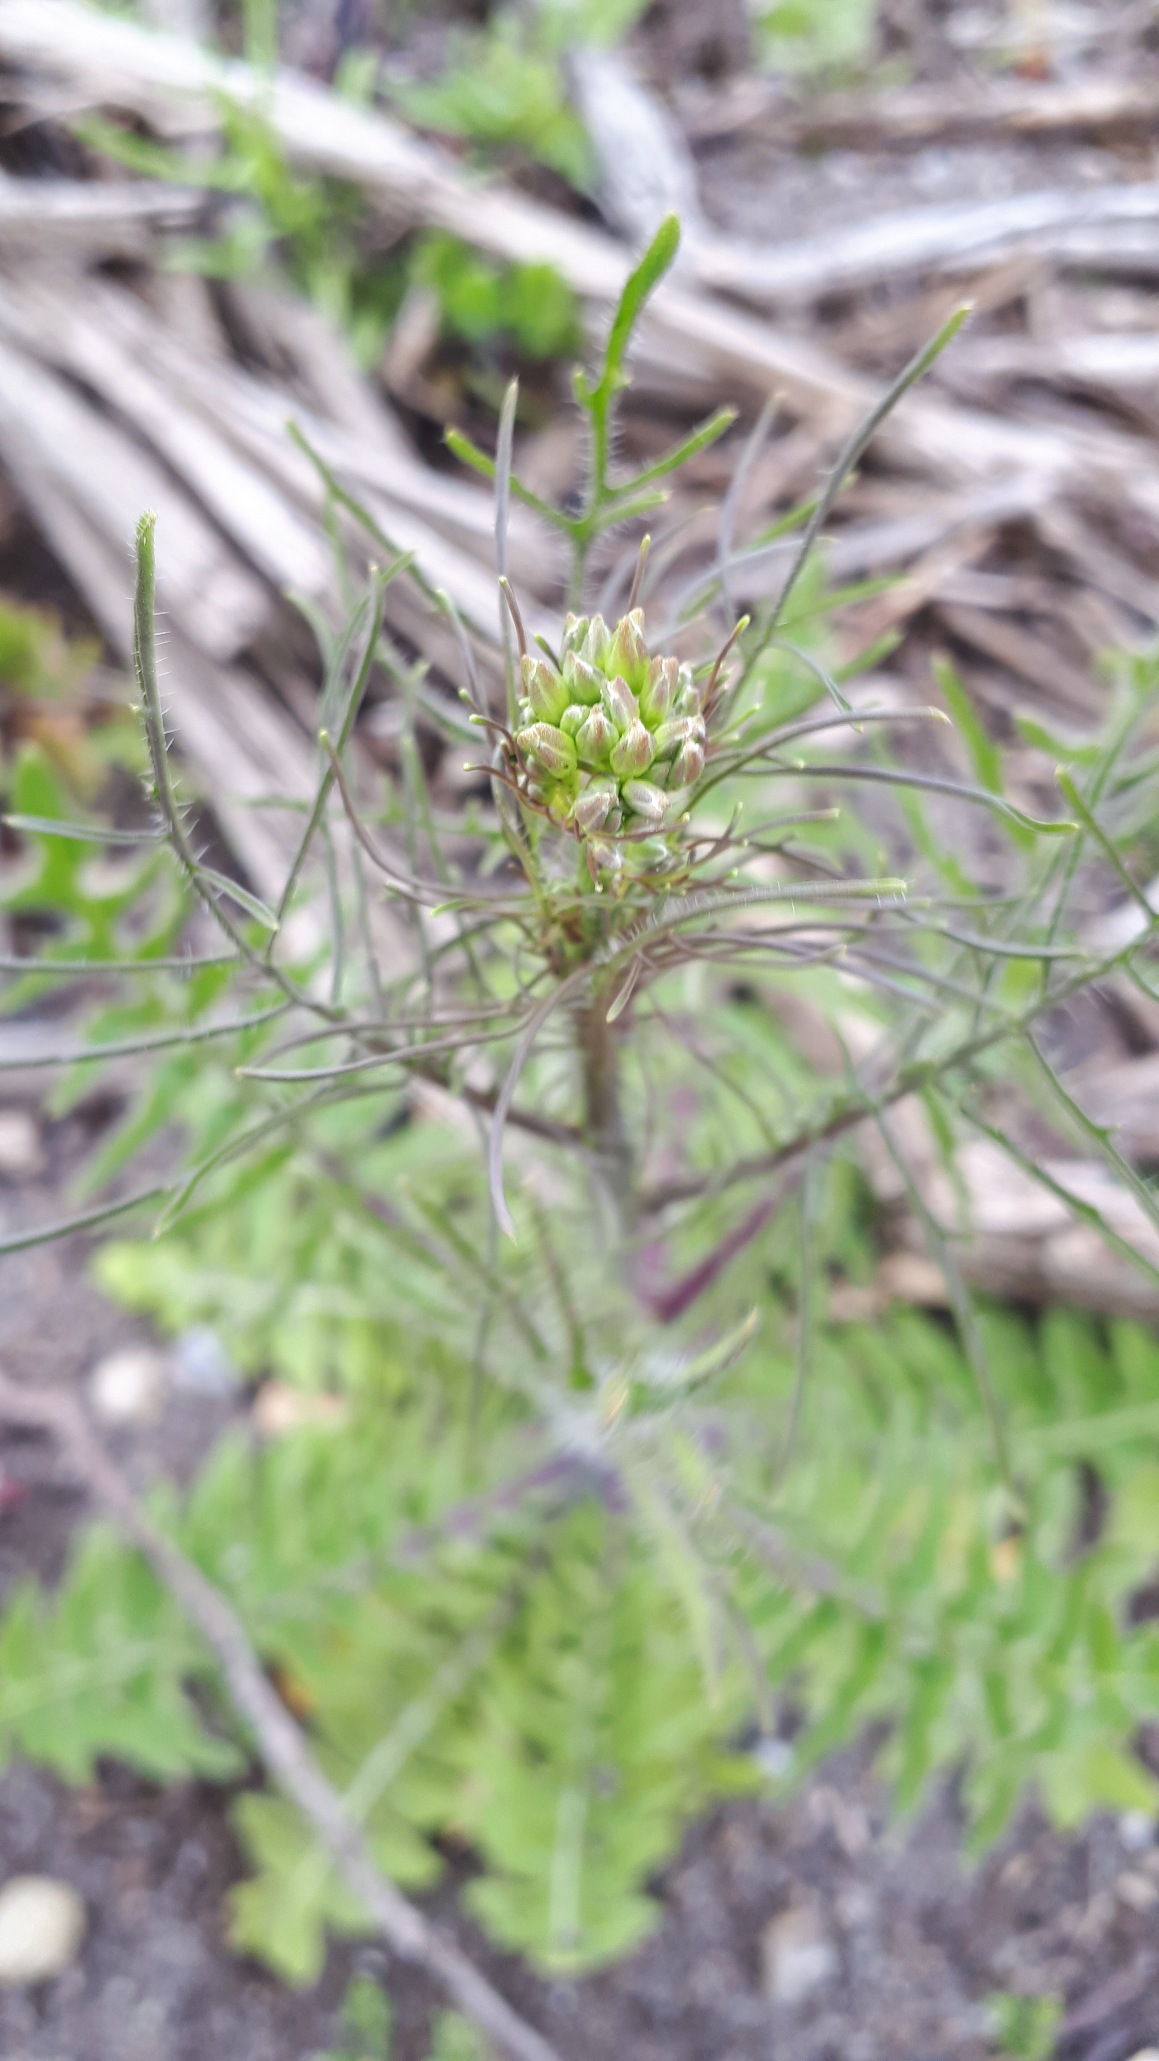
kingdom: Plantae
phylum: Tracheophyta
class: Magnoliopsida
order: Brassicales
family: Brassicaceae
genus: Sisymbrium
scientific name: Sisymbrium altissimum
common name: Ungarsk vejsennep
